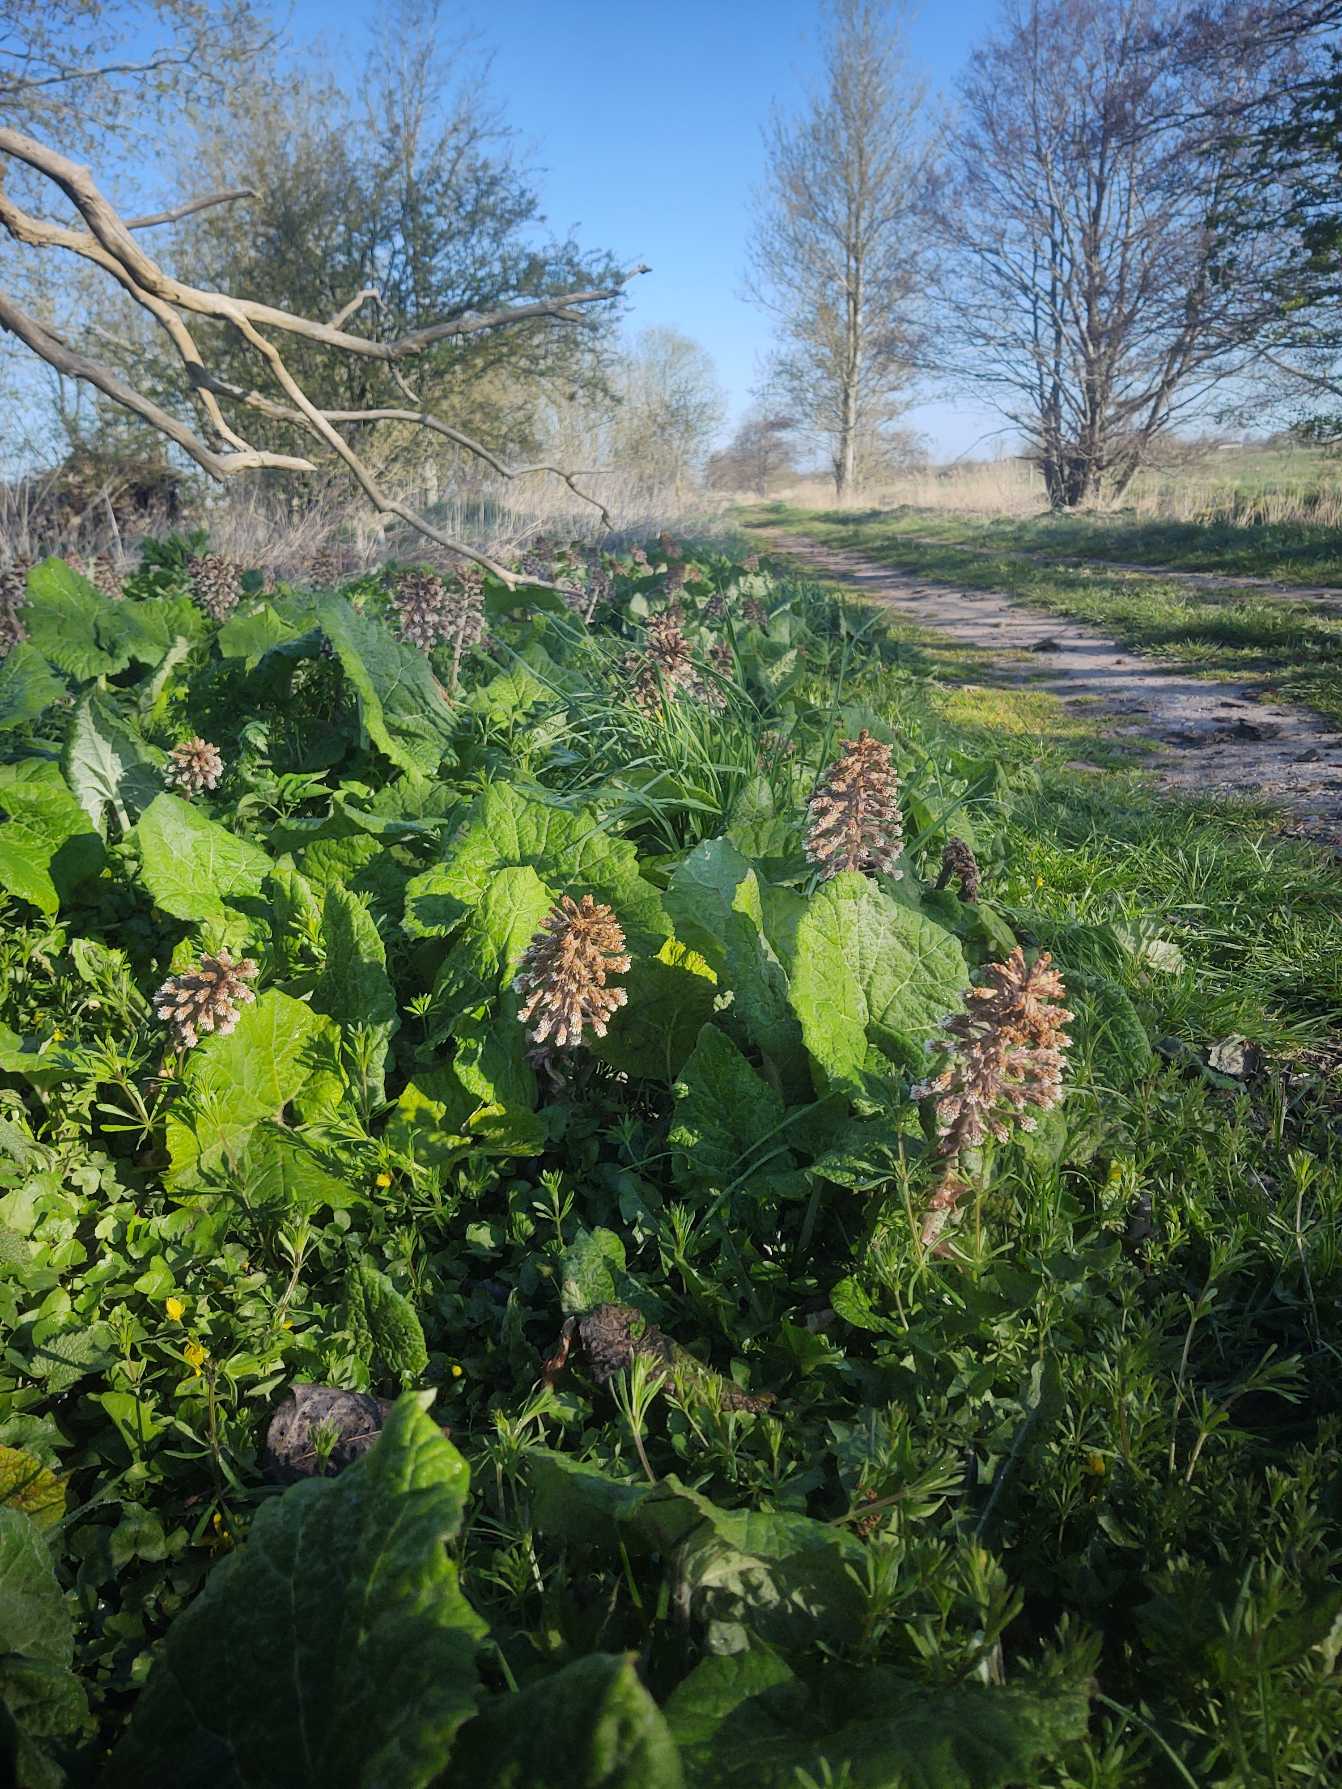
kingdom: Plantae
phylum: Tracheophyta
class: Magnoliopsida
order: Asterales
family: Asteraceae
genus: Petasites
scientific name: Petasites hybridus
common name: Rød hestehov
